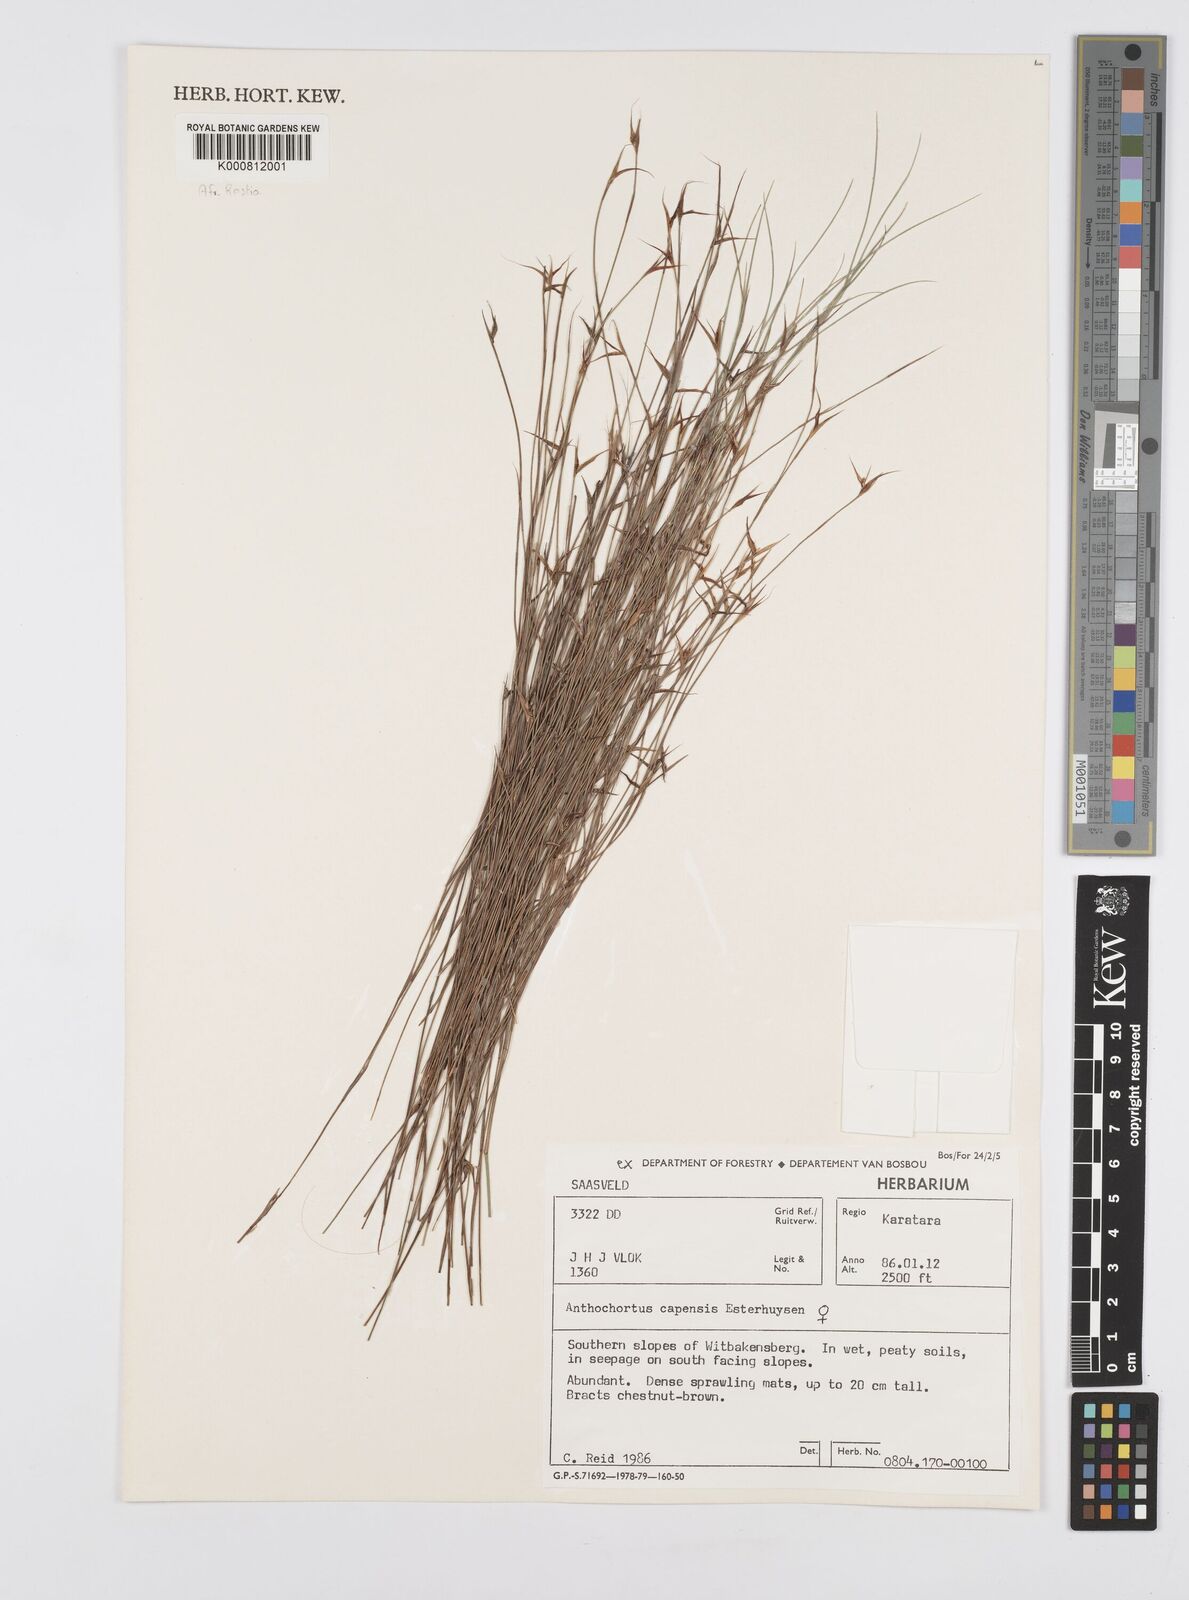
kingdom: Plantae
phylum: Tracheophyta
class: Liliopsida
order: Poales
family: Restionaceae
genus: Anthochortus
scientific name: Anthochortus capensis
